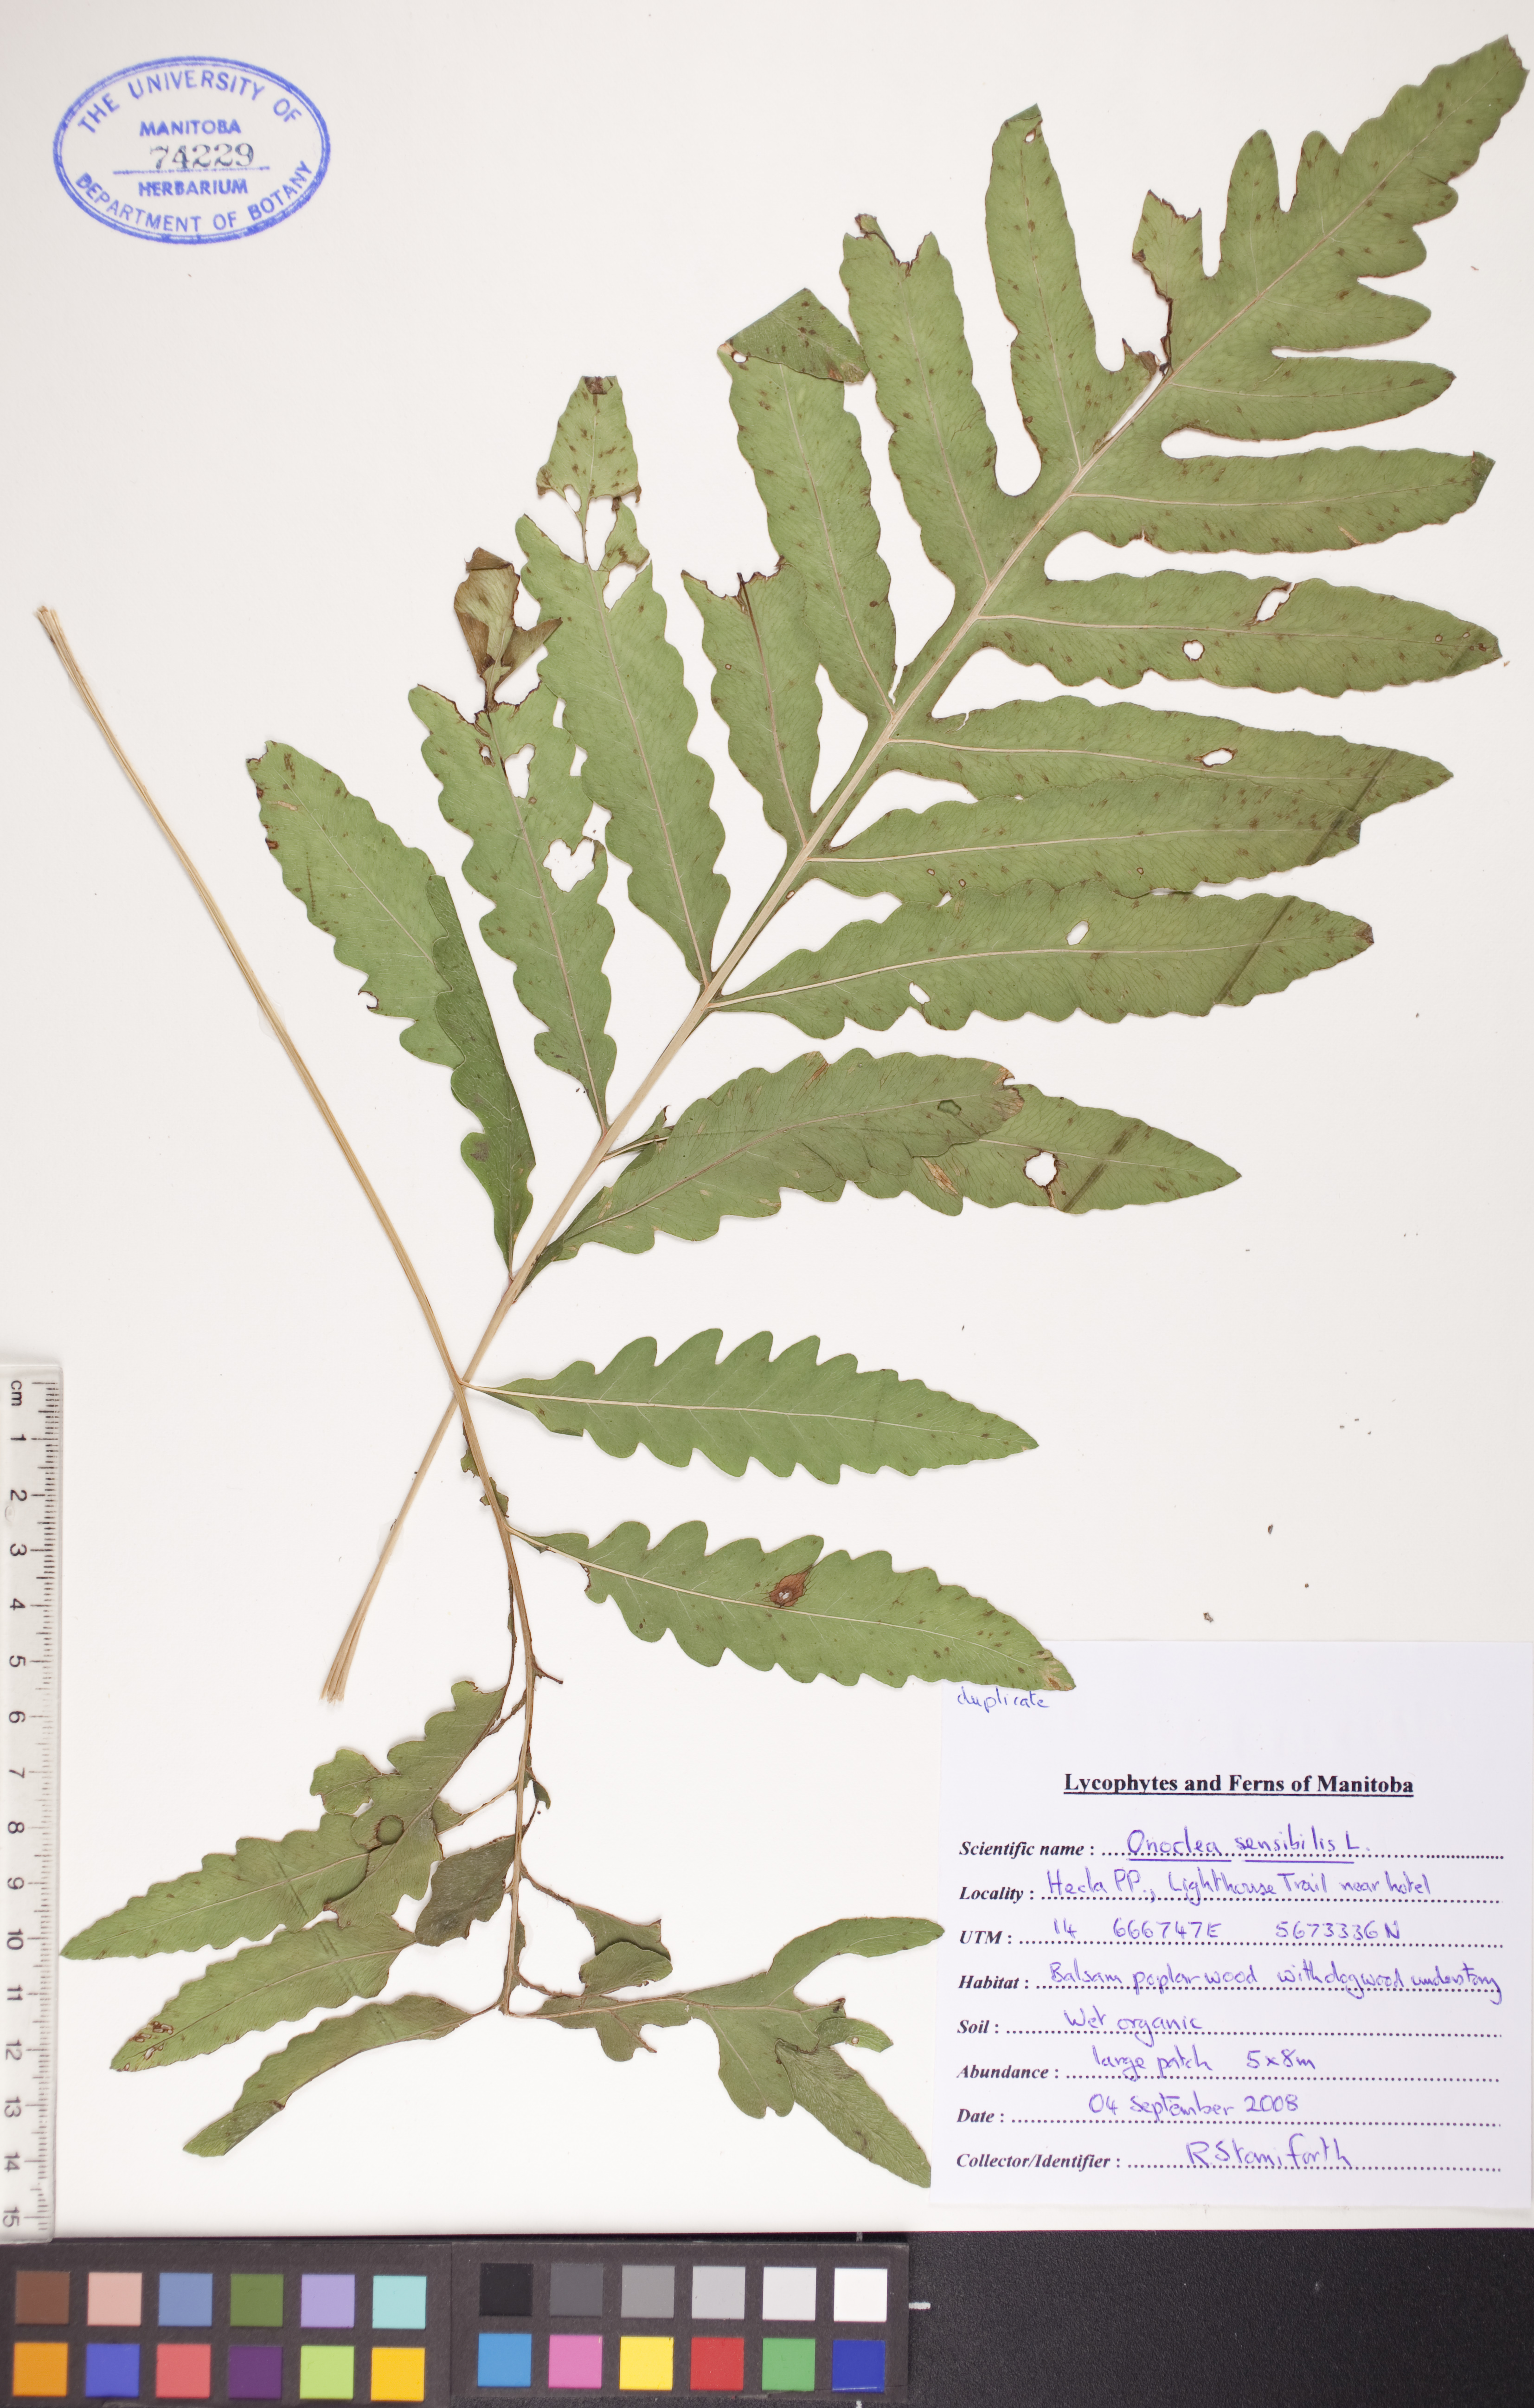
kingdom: Plantae
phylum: Tracheophyta
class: Polypodiopsida
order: Polypodiales
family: Onocleaceae
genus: Onoclea
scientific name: Onoclea sensibilis
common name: Sensitive fern
